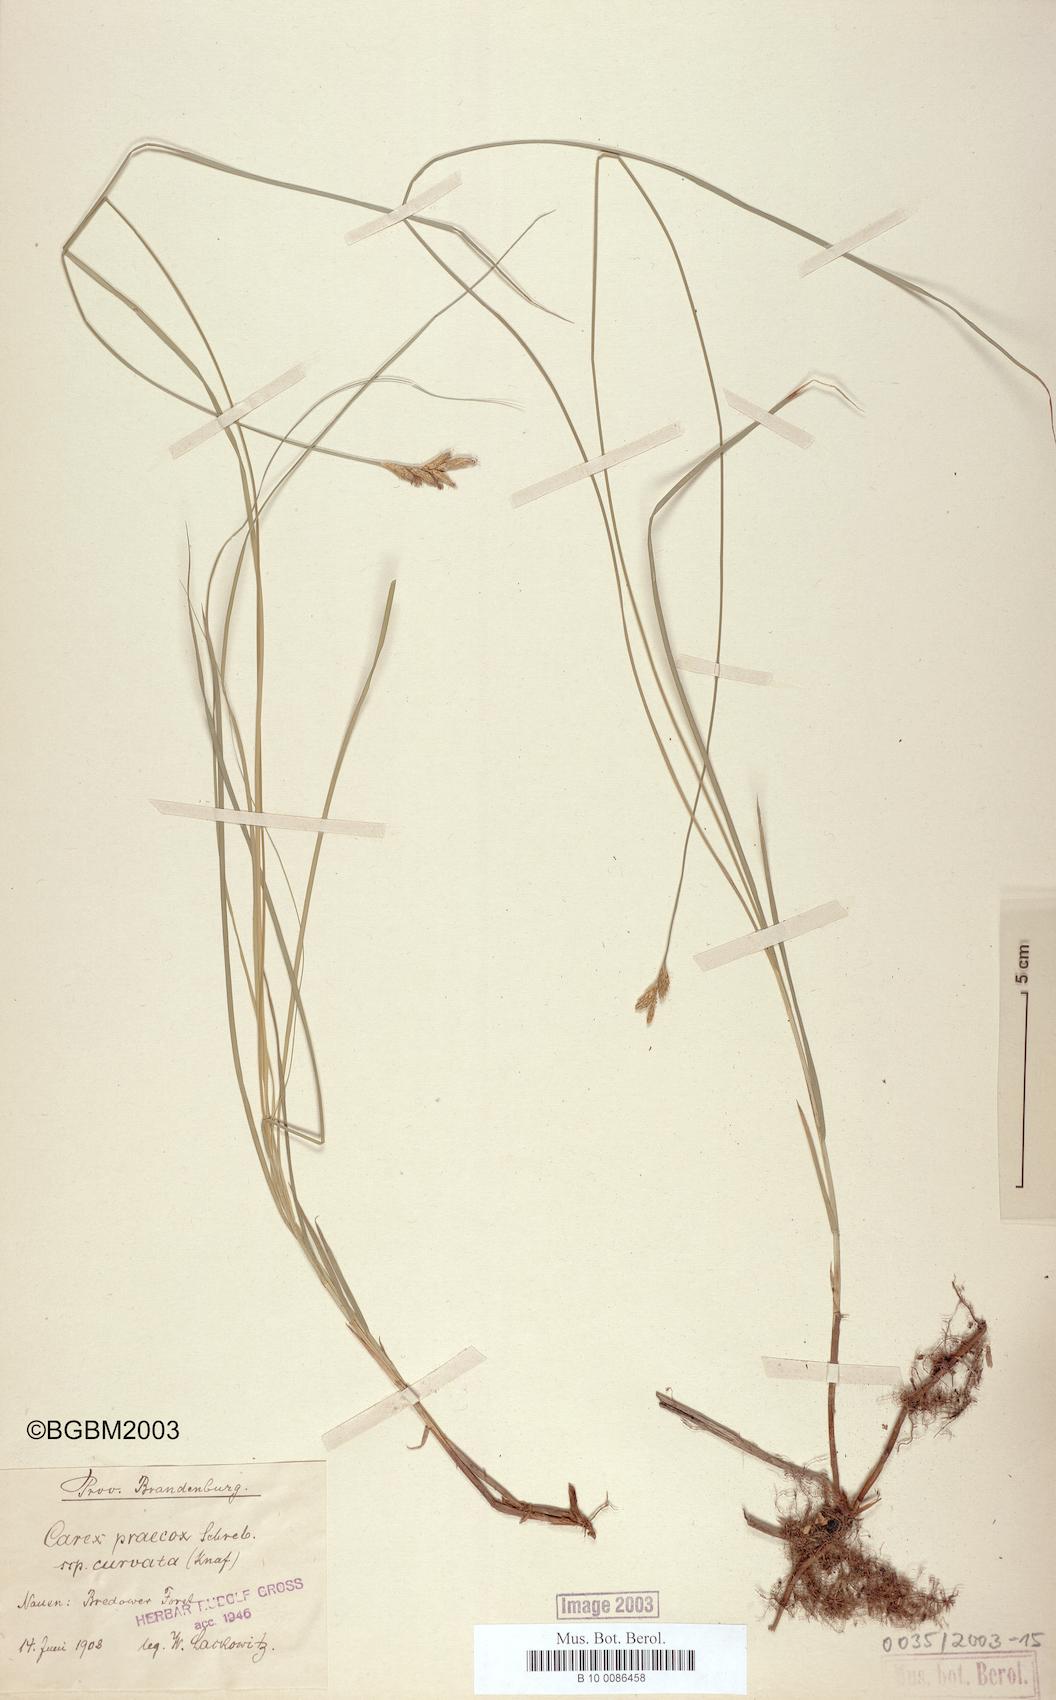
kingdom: Plantae
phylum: Tracheophyta
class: Liliopsida
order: Poales
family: Cyperaceae
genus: Carex
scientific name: Carex curvata
